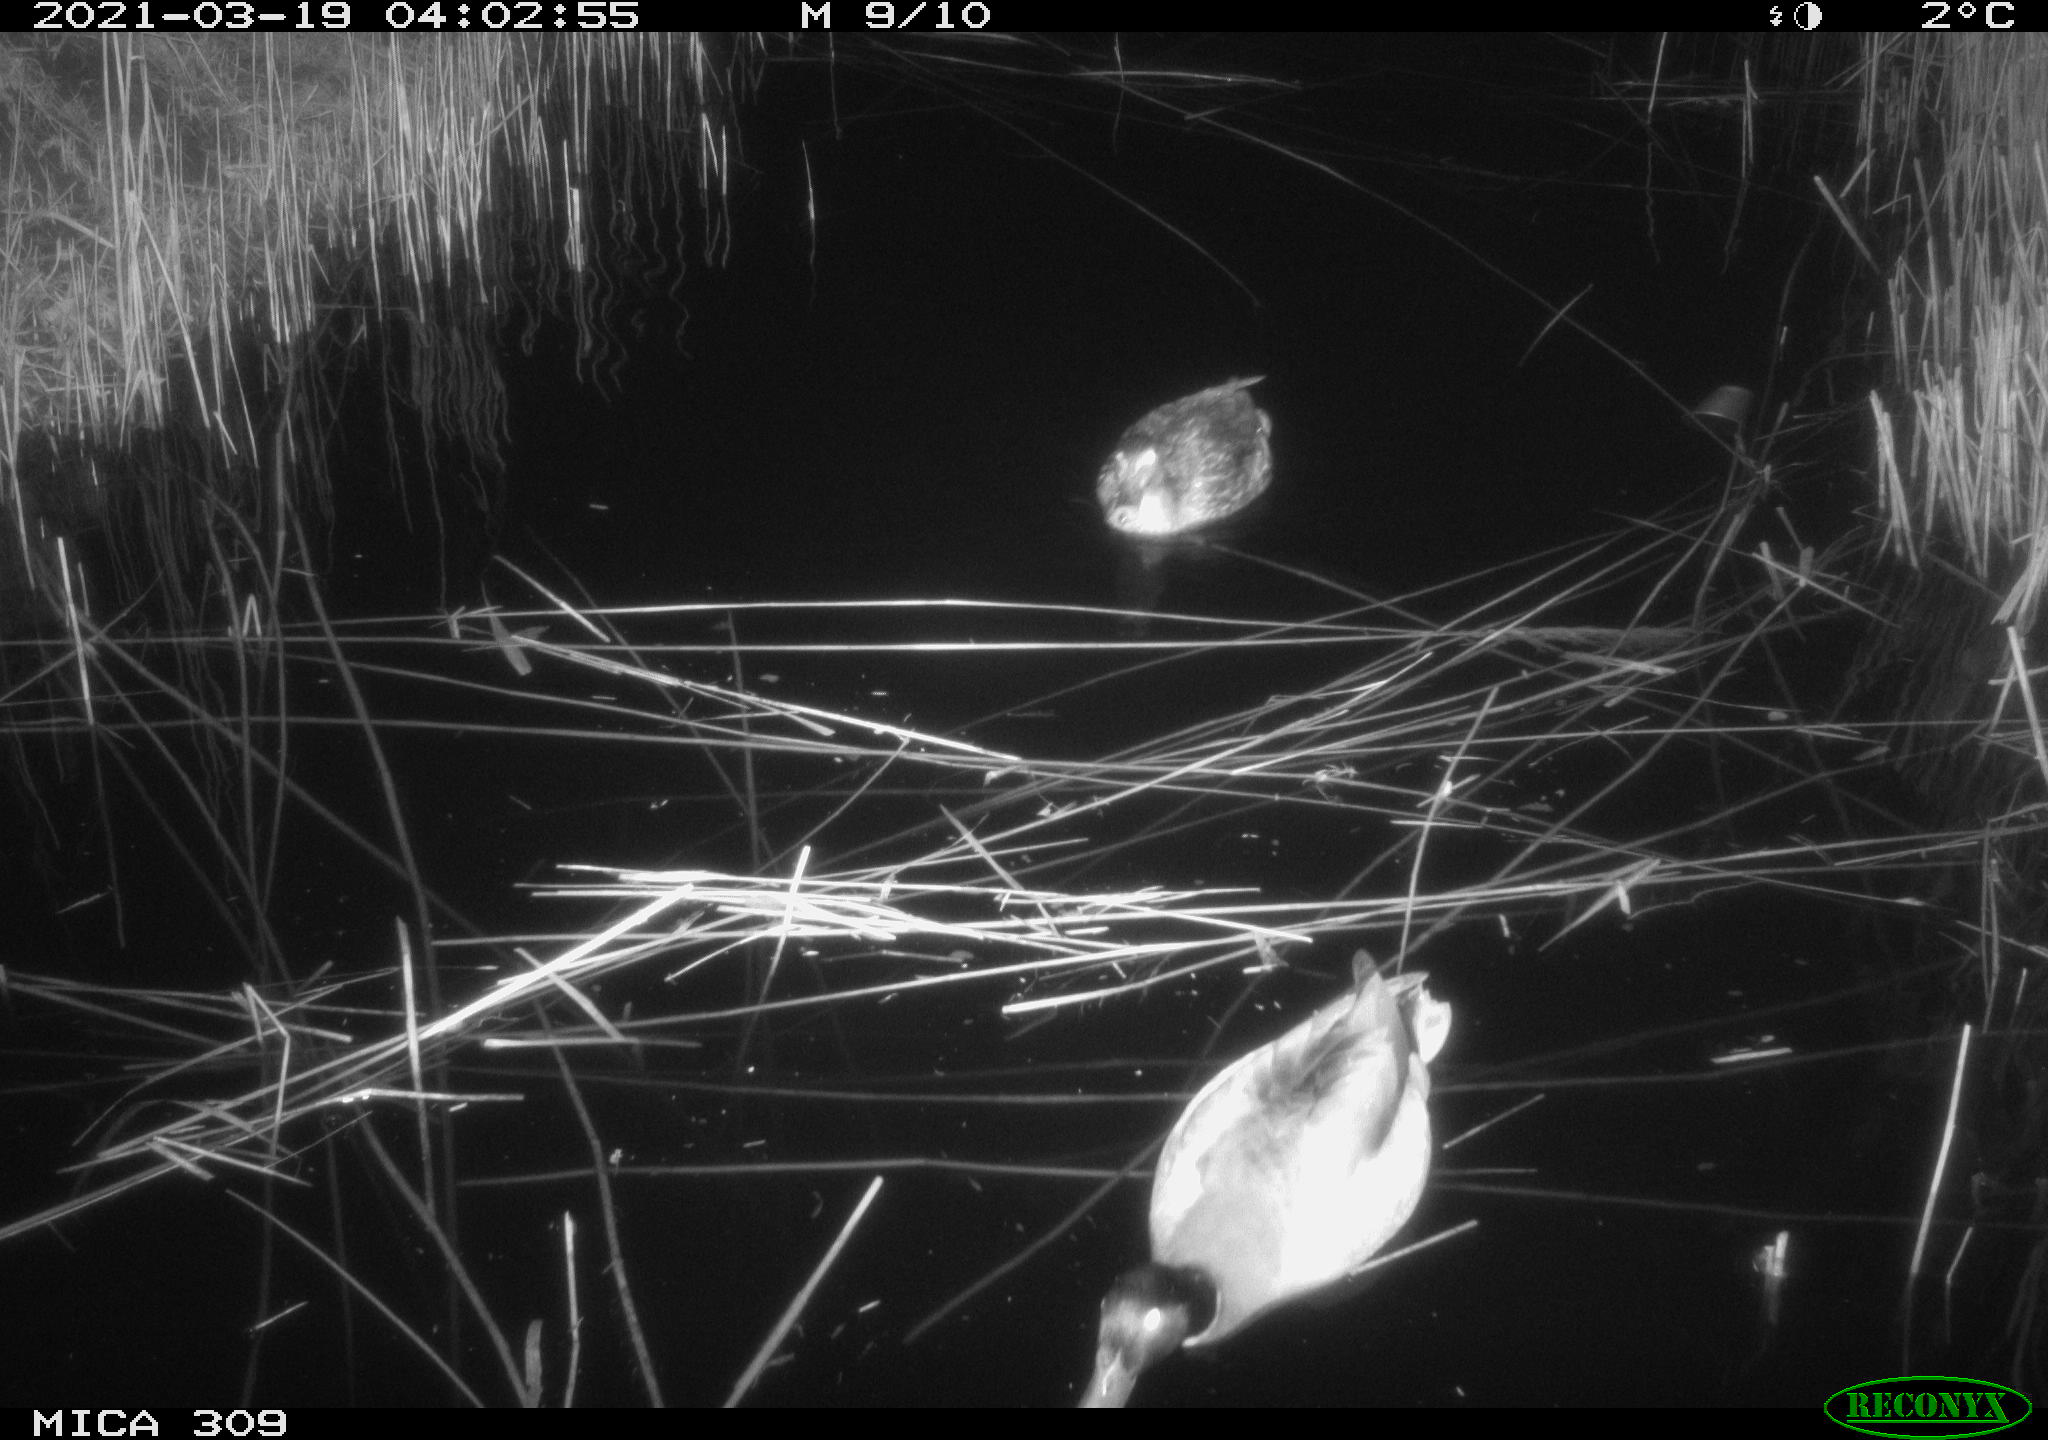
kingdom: Animalia
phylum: Chordata
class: Aves
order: Anseriformes
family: Anatidae
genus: Anas
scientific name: Anas platyrhynchos
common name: Mallard
